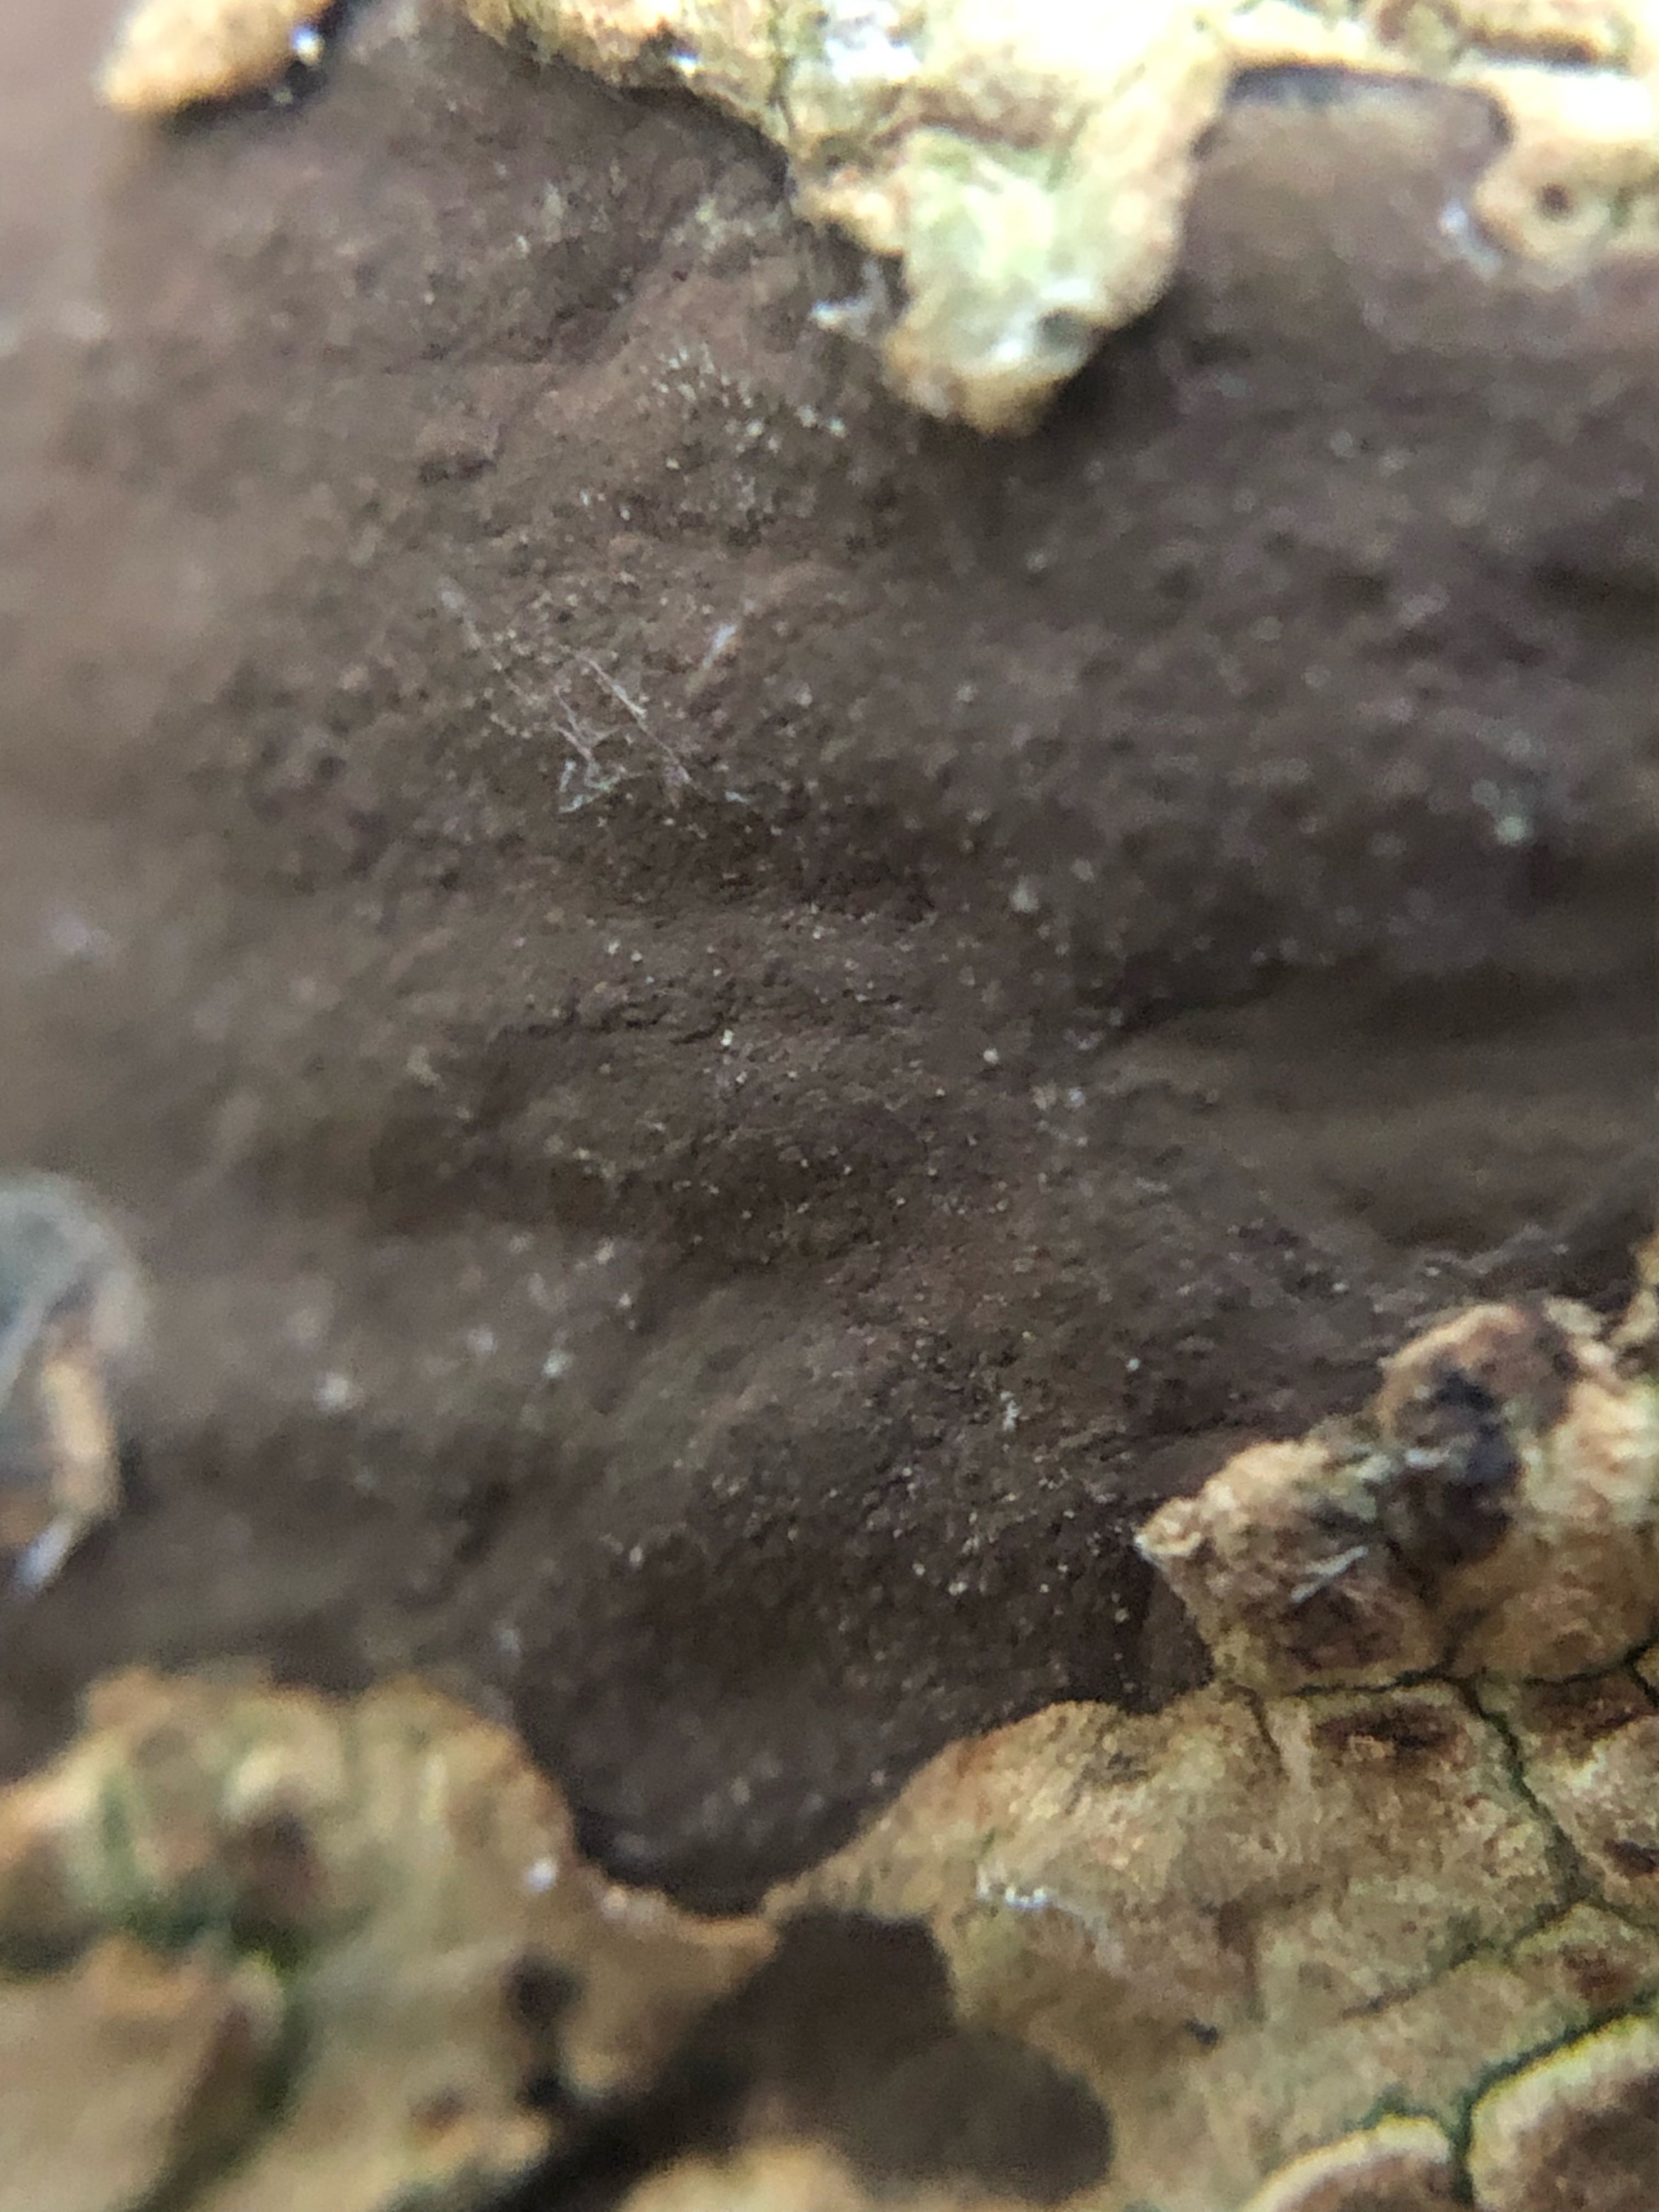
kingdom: Fungi
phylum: Ascomycota
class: Sordariomycetes
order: Xylariales
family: Hypoxylaceae
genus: Hypoxylon
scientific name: Hypoxylon petriniae
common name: nedsænket kulbær
